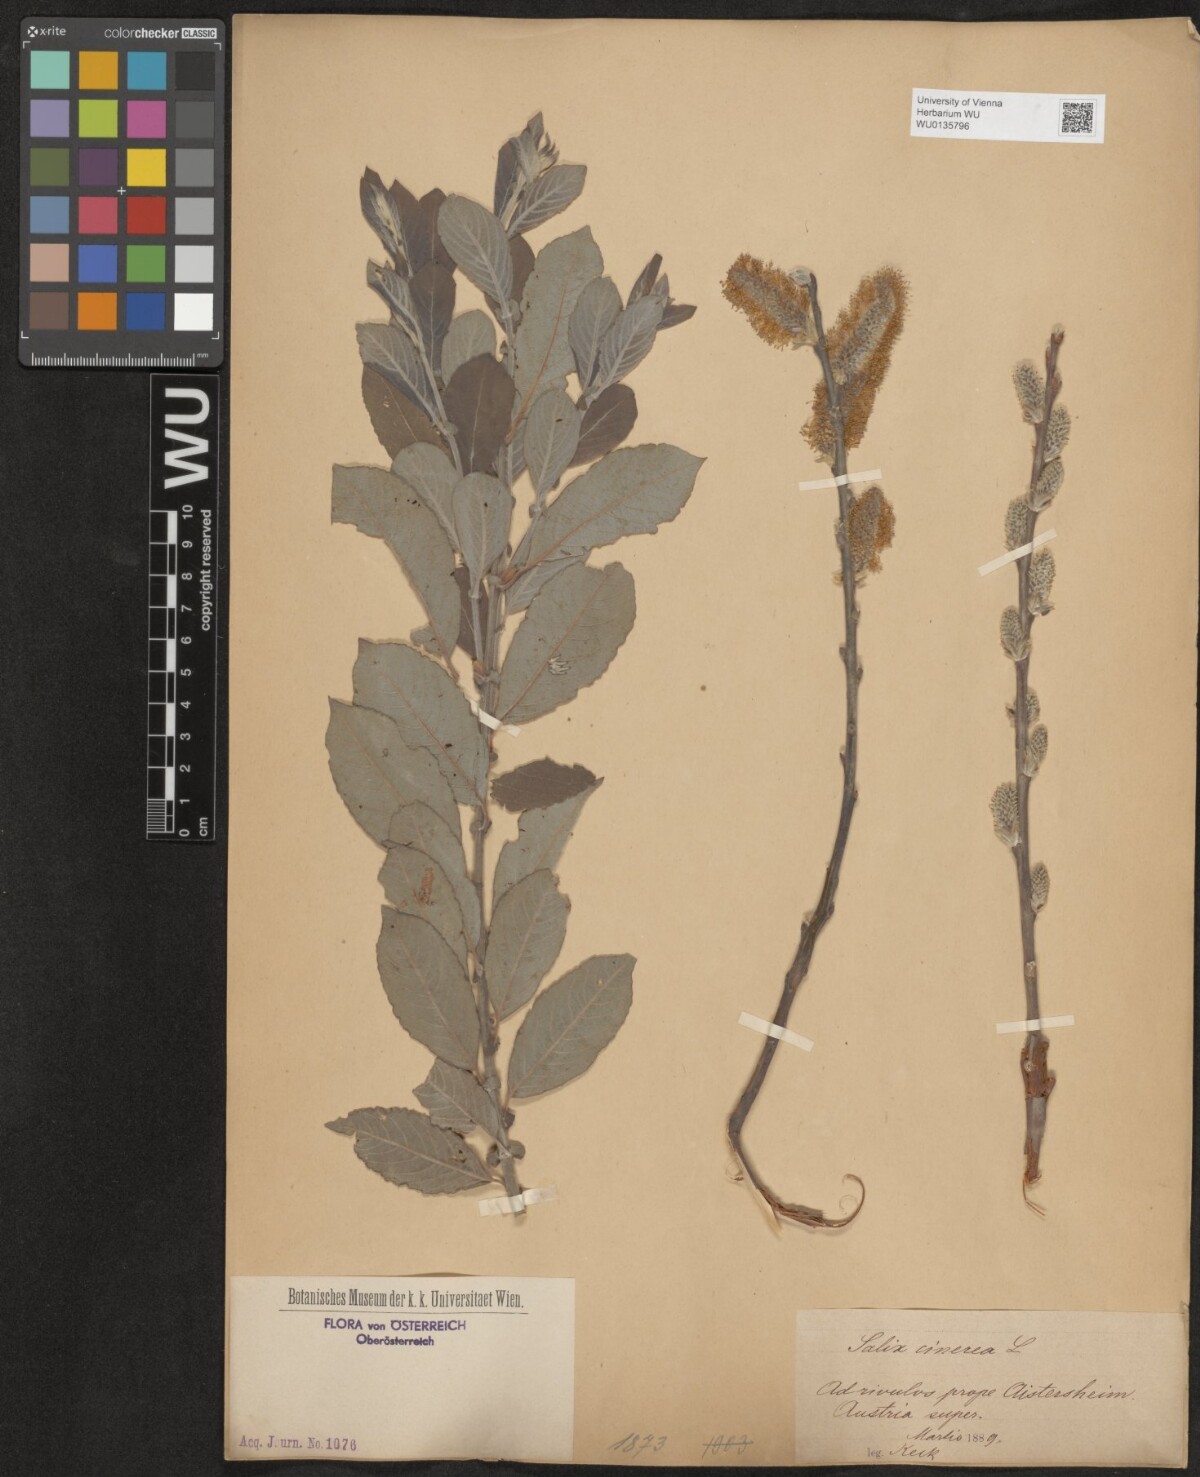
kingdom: Plantae
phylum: Tracheophyta
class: Magnoliopsida
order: Malpighiales
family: Salicaceae
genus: Salix
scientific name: Salix cinerea
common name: Common sallow
